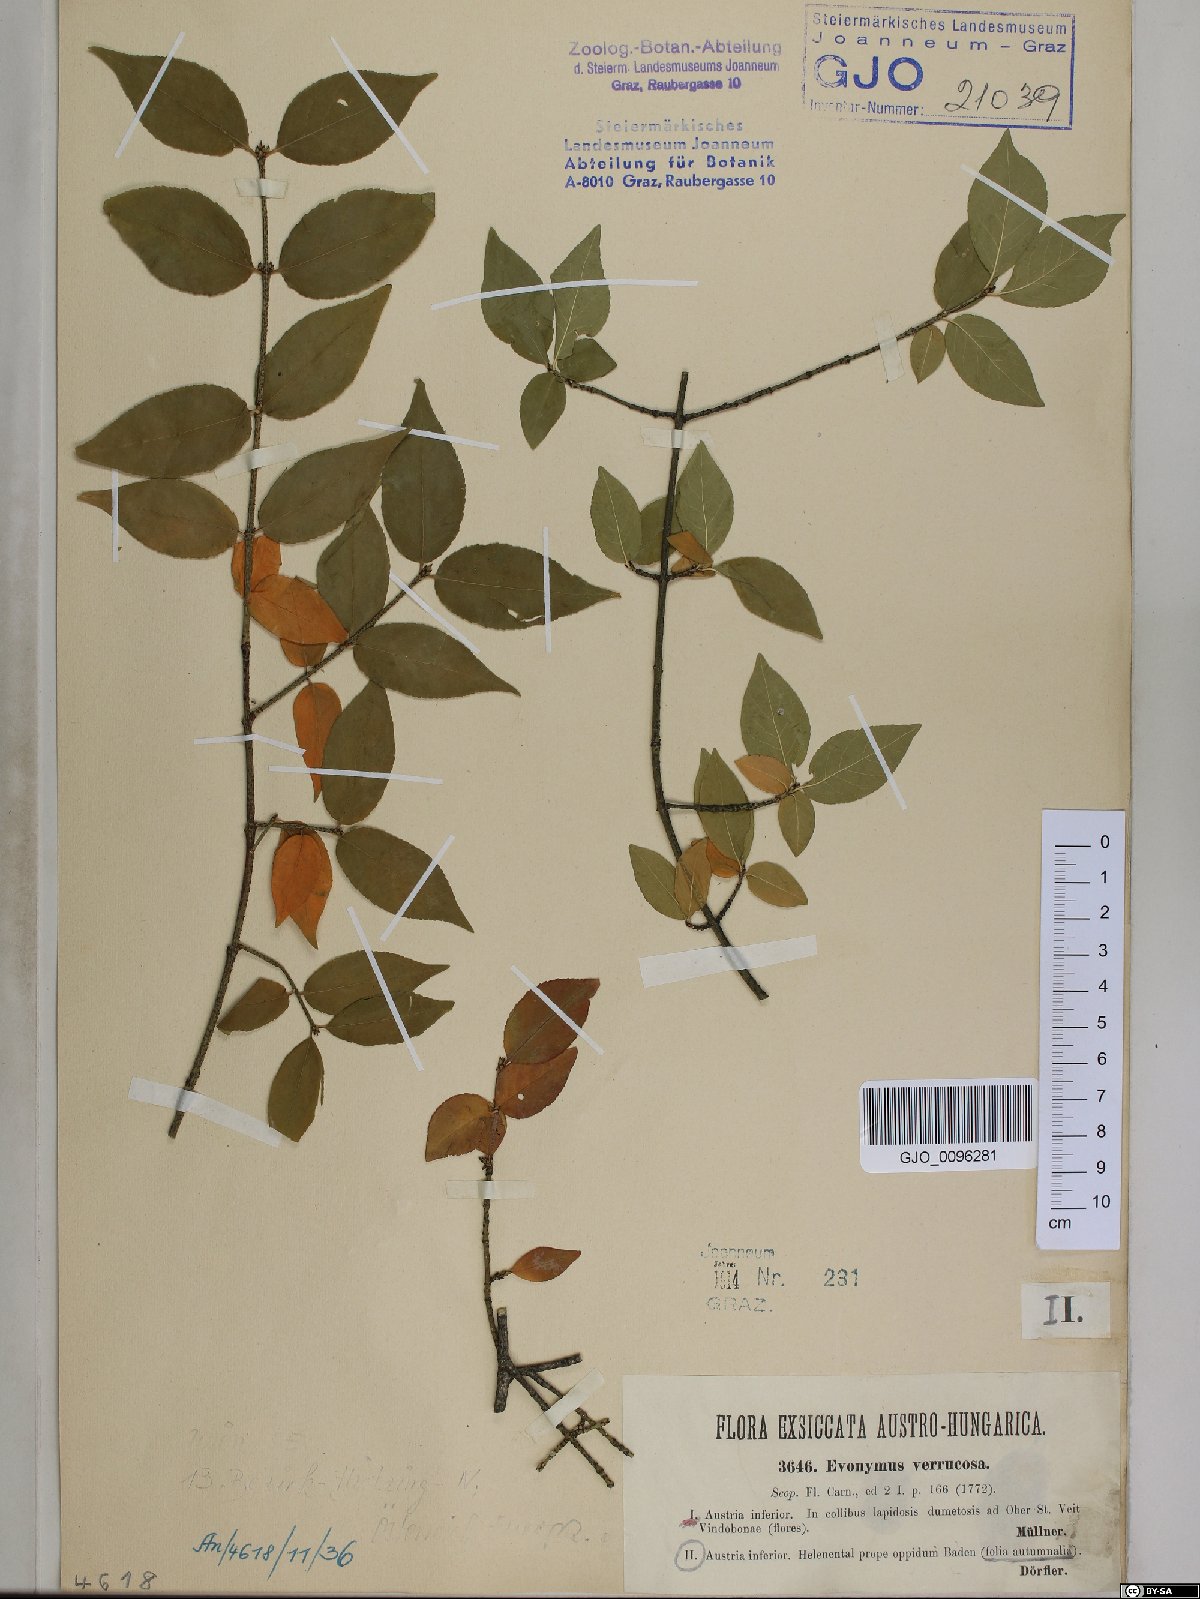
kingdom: Plantae
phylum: Tracheophyta
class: Magnoliopsida
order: Celastrales
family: Celastraceae
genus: Euonymus
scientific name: Euonymus verrucosus
